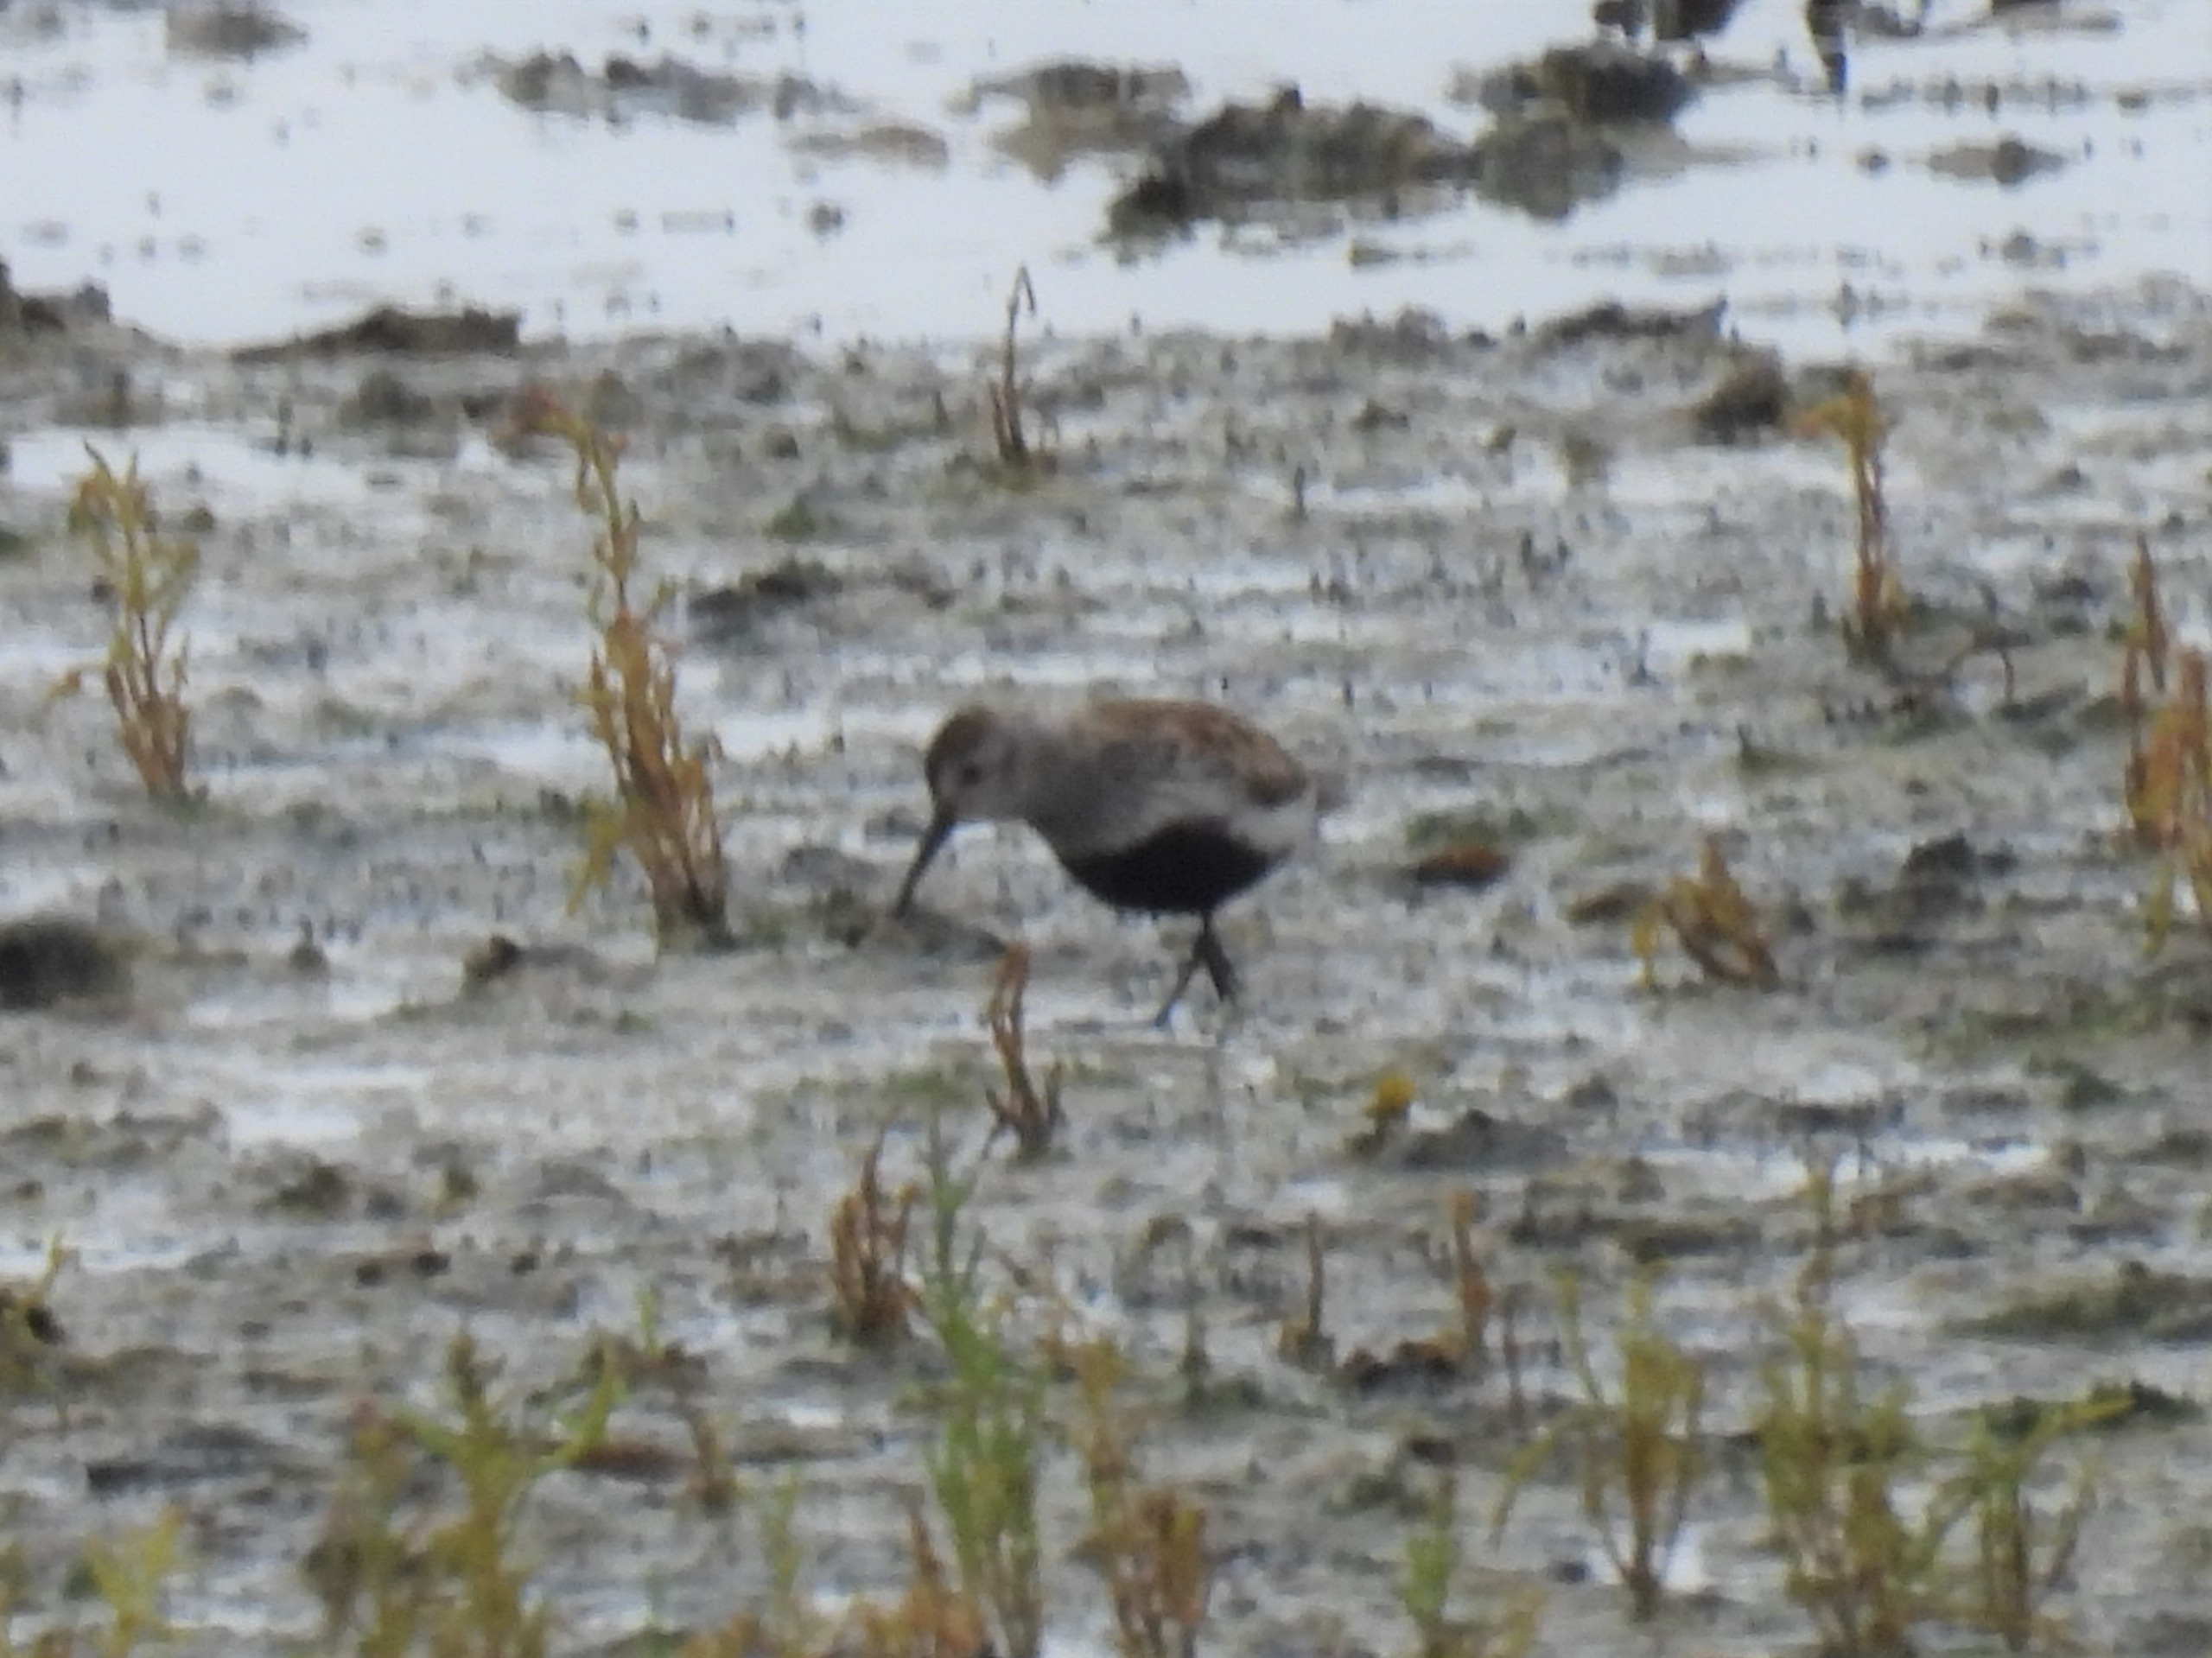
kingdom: Animalia
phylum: Chordata
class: Aves
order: Charadriiformes
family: Scolopacidae
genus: Calidris
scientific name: Calidris alpina
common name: Almindelig ryle
